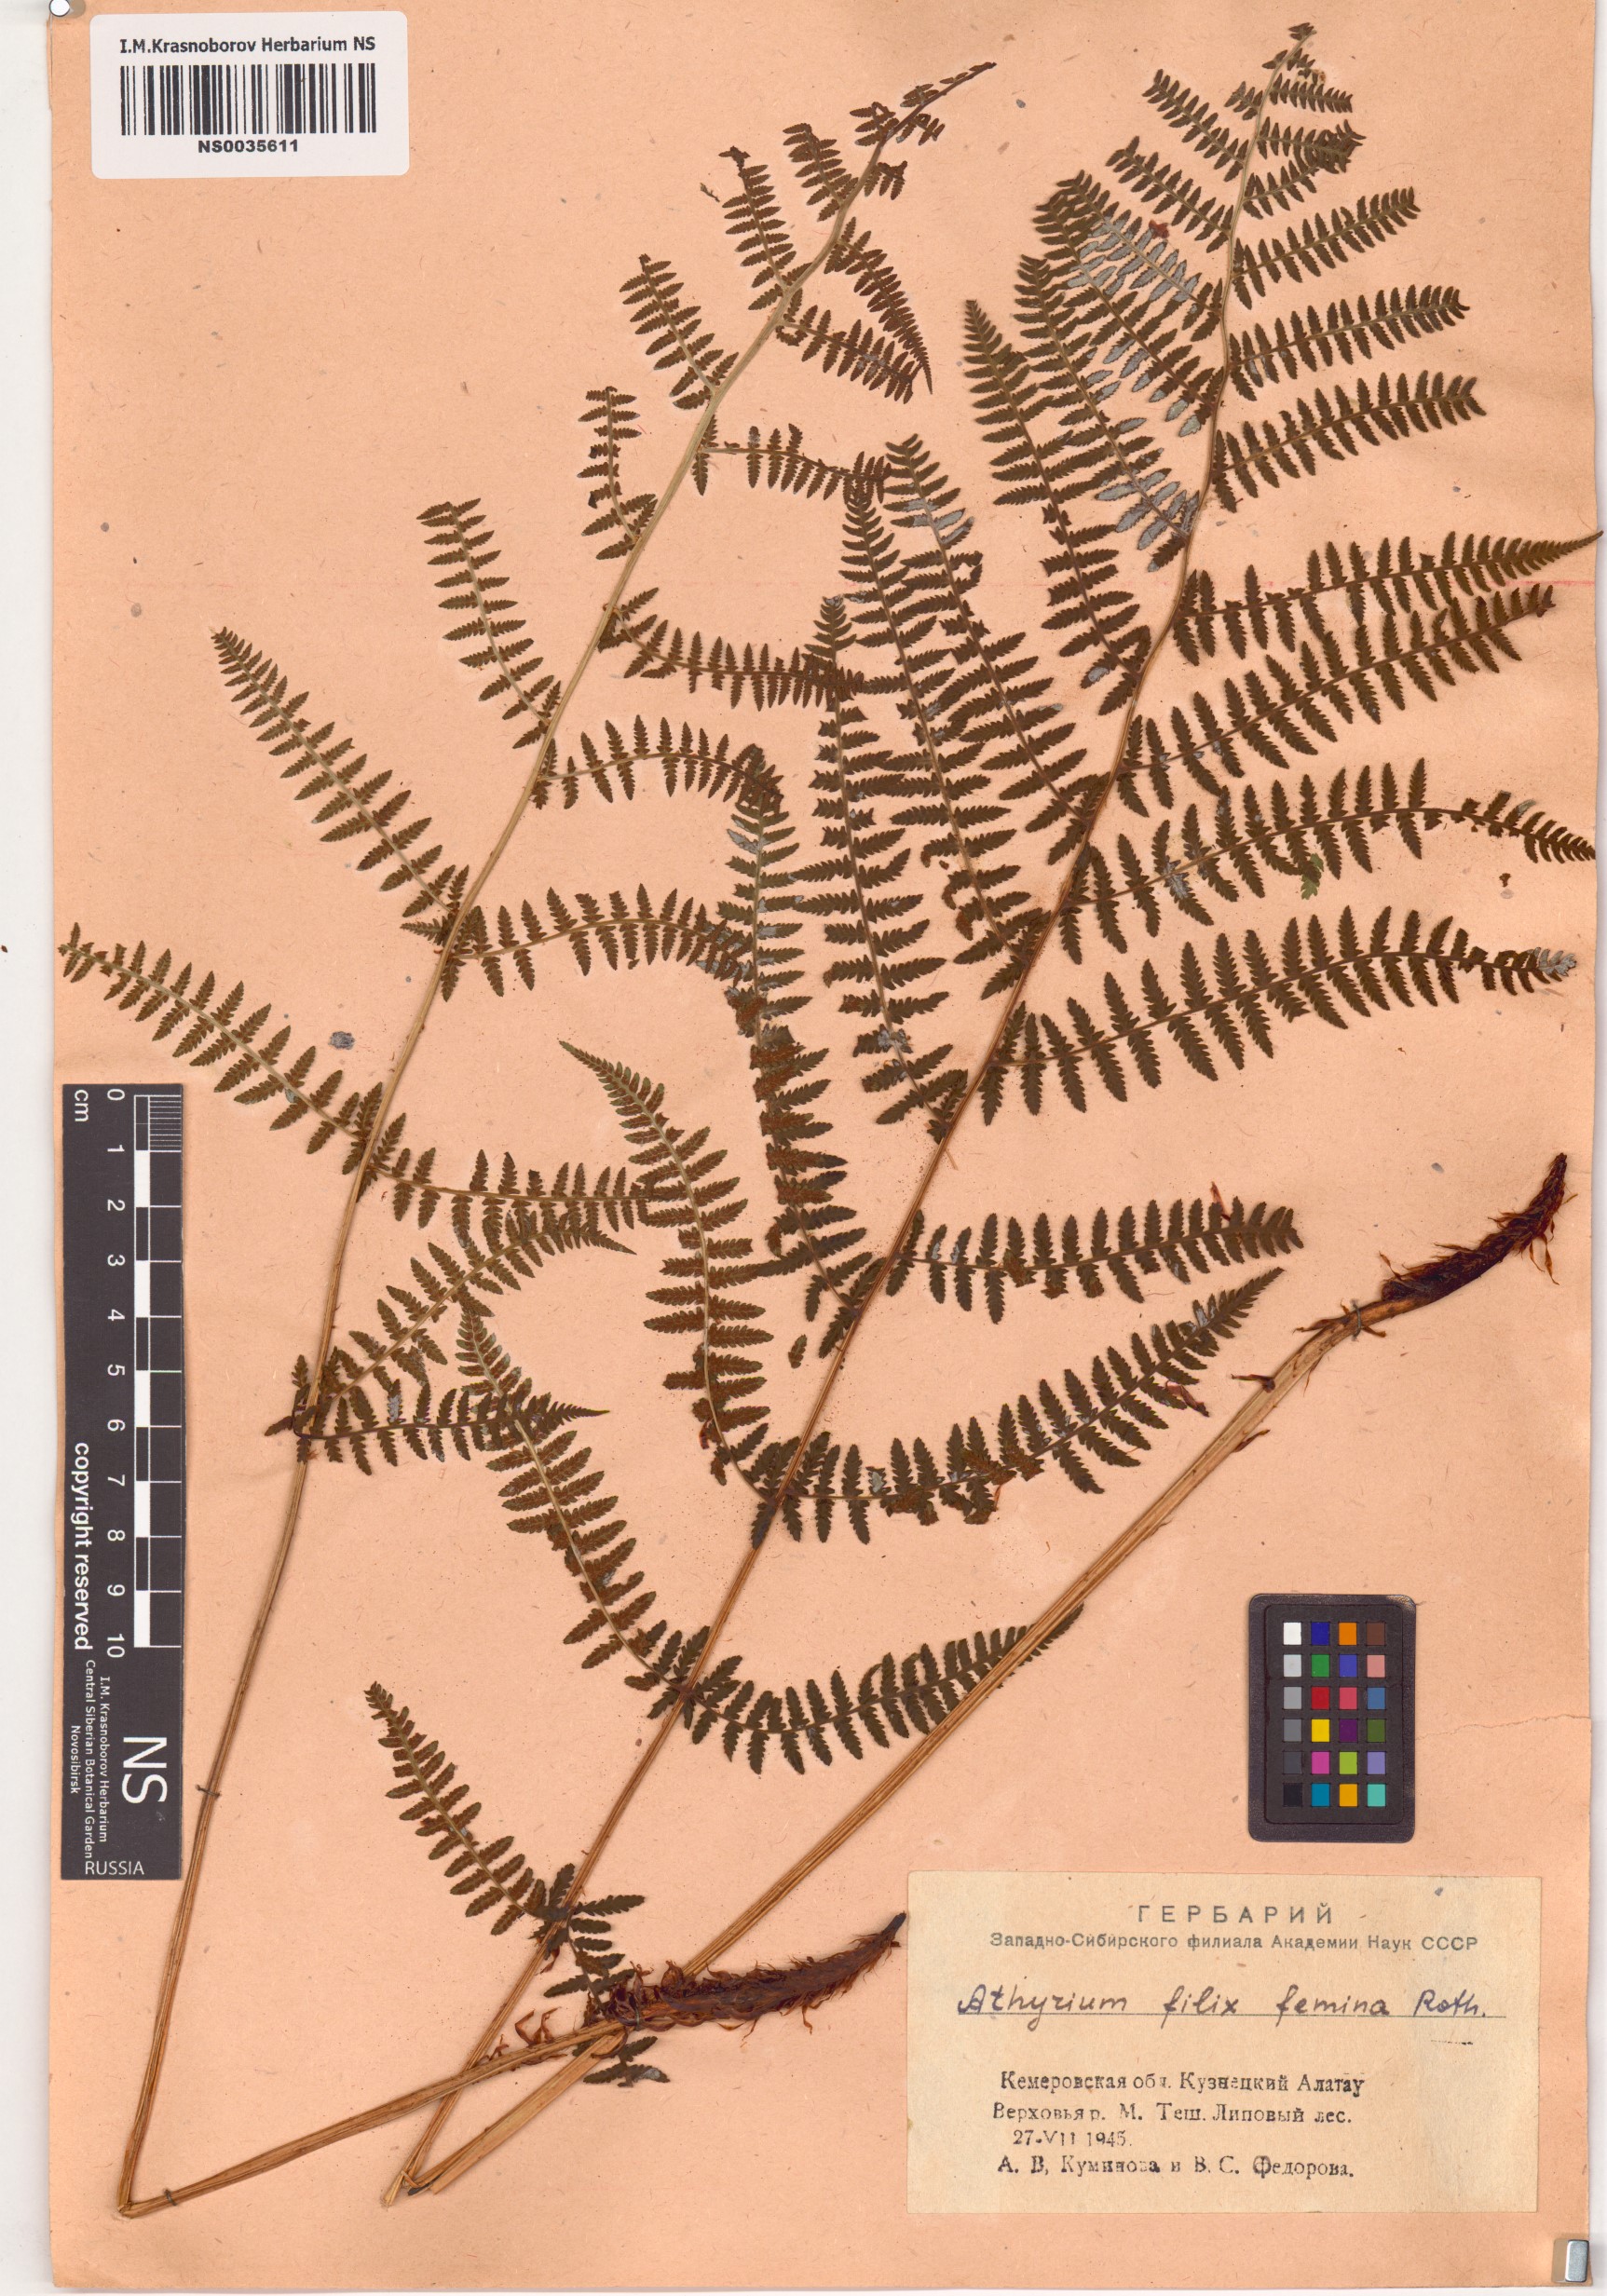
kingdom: Plantae
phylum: Tracheophyta
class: Polypodiopsida
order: Polypodiales
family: Athyriaceae
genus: Athyrium
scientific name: Athyrium filix-femina
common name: Lady fern
